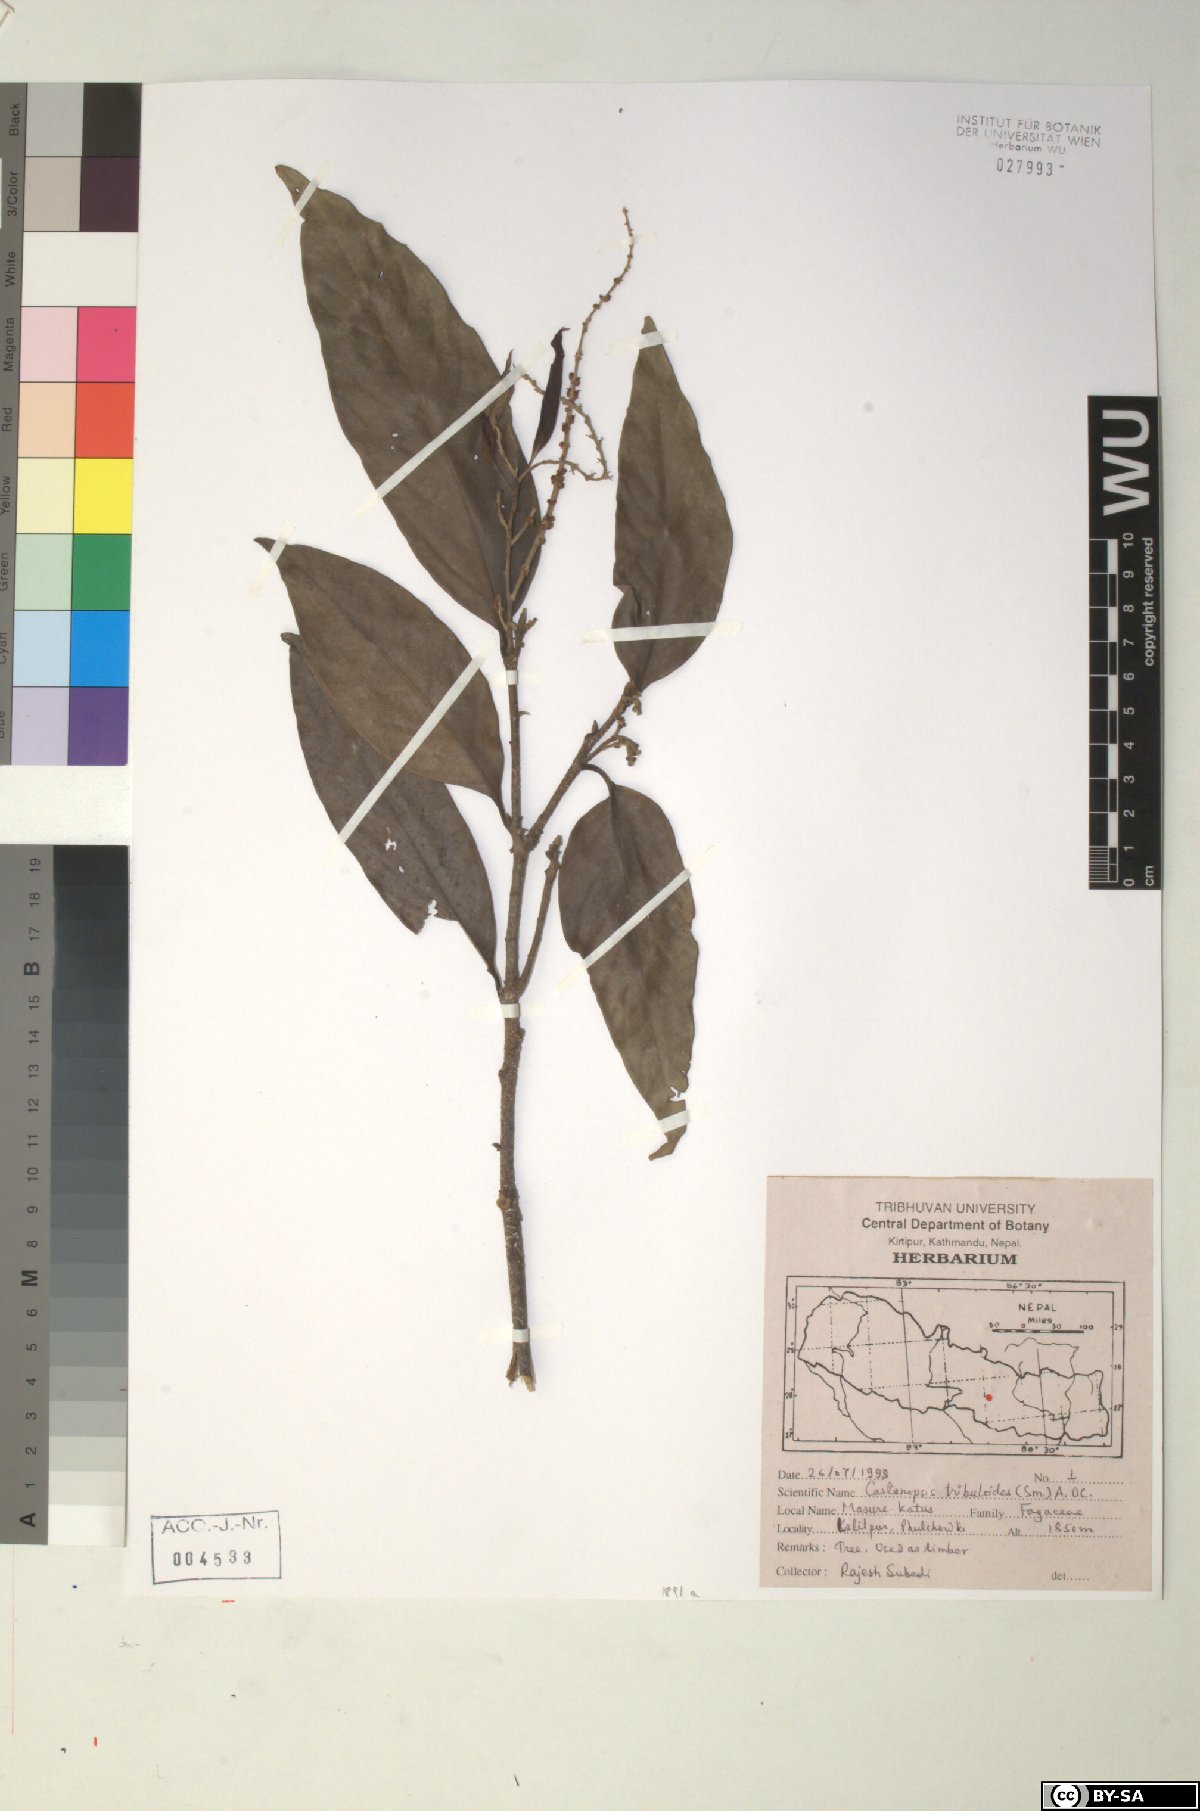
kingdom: Plantae
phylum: Tracheophyta
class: Magnoliopsida
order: Fagales
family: Fagaceae
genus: Castanopsis
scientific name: Castanopsis tribuloides
